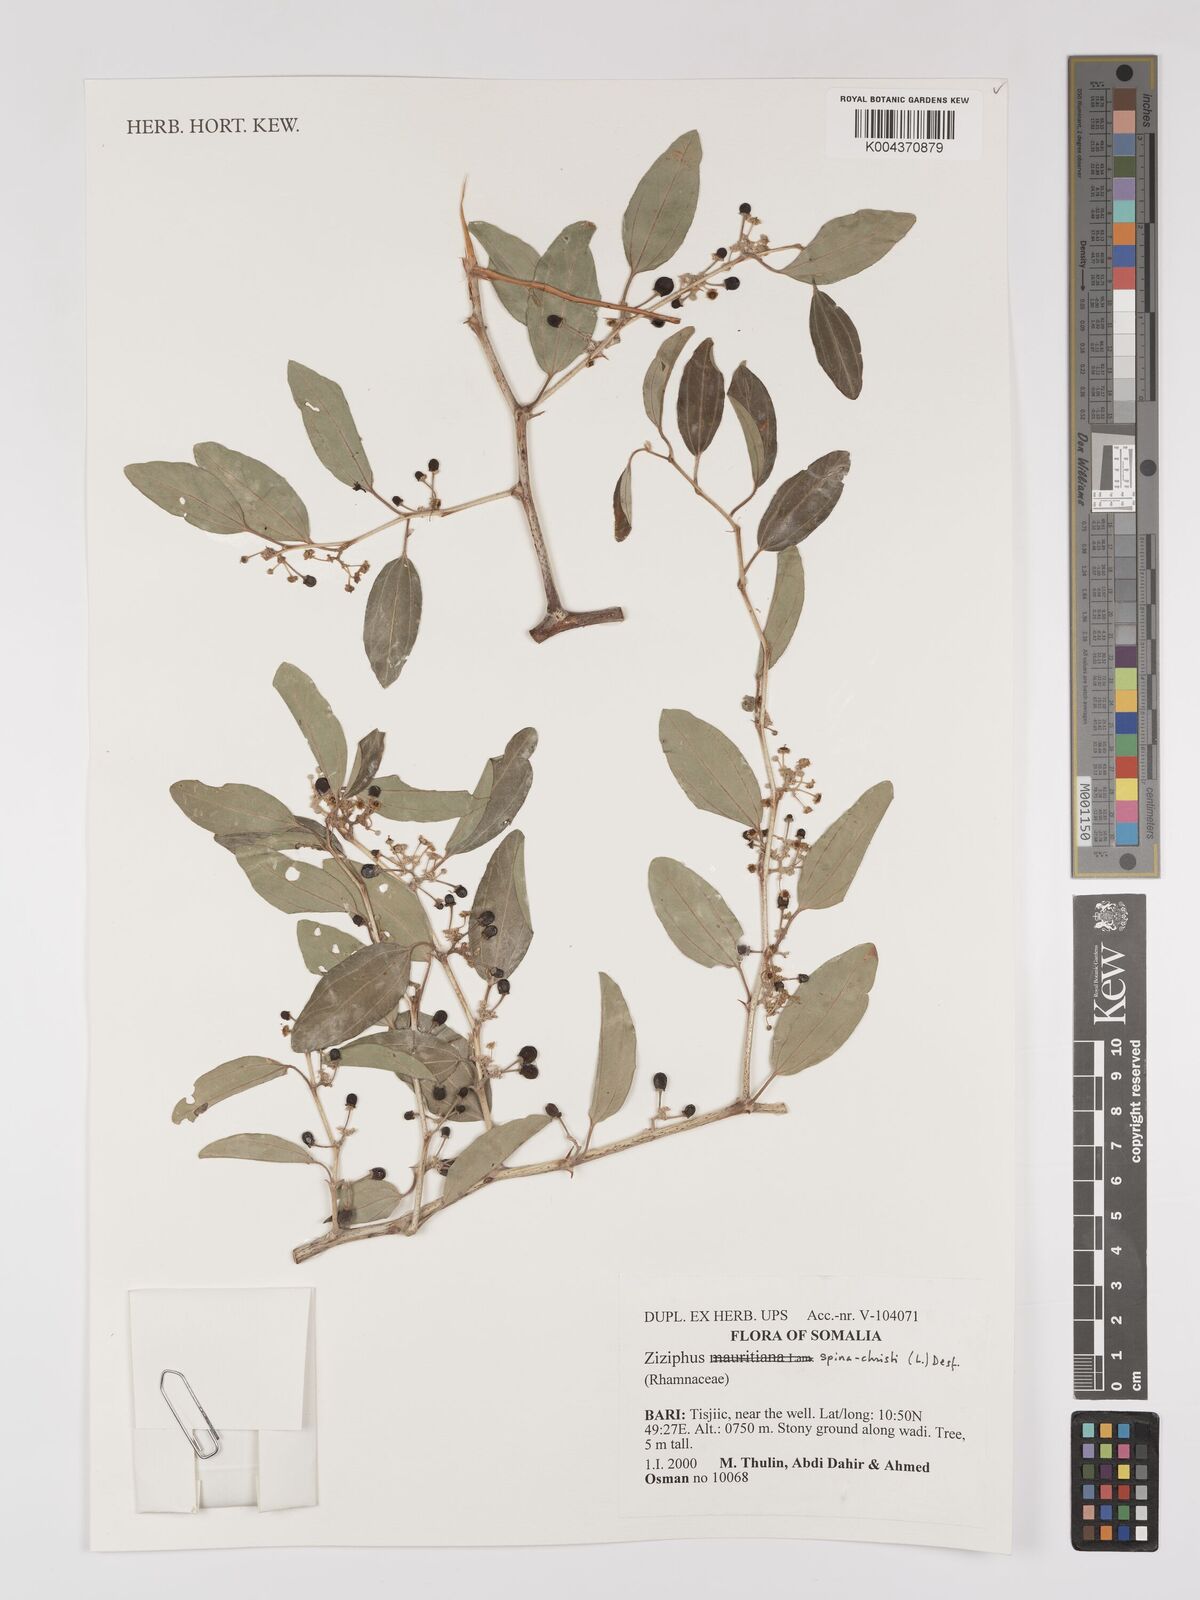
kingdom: Plantae
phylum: Tracheophyta
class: Magnoliopsida
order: Rosales
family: Rhamnaceae
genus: Ziziphus
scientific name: Ziziphus spina-christi
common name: Syrian christ-thorn
